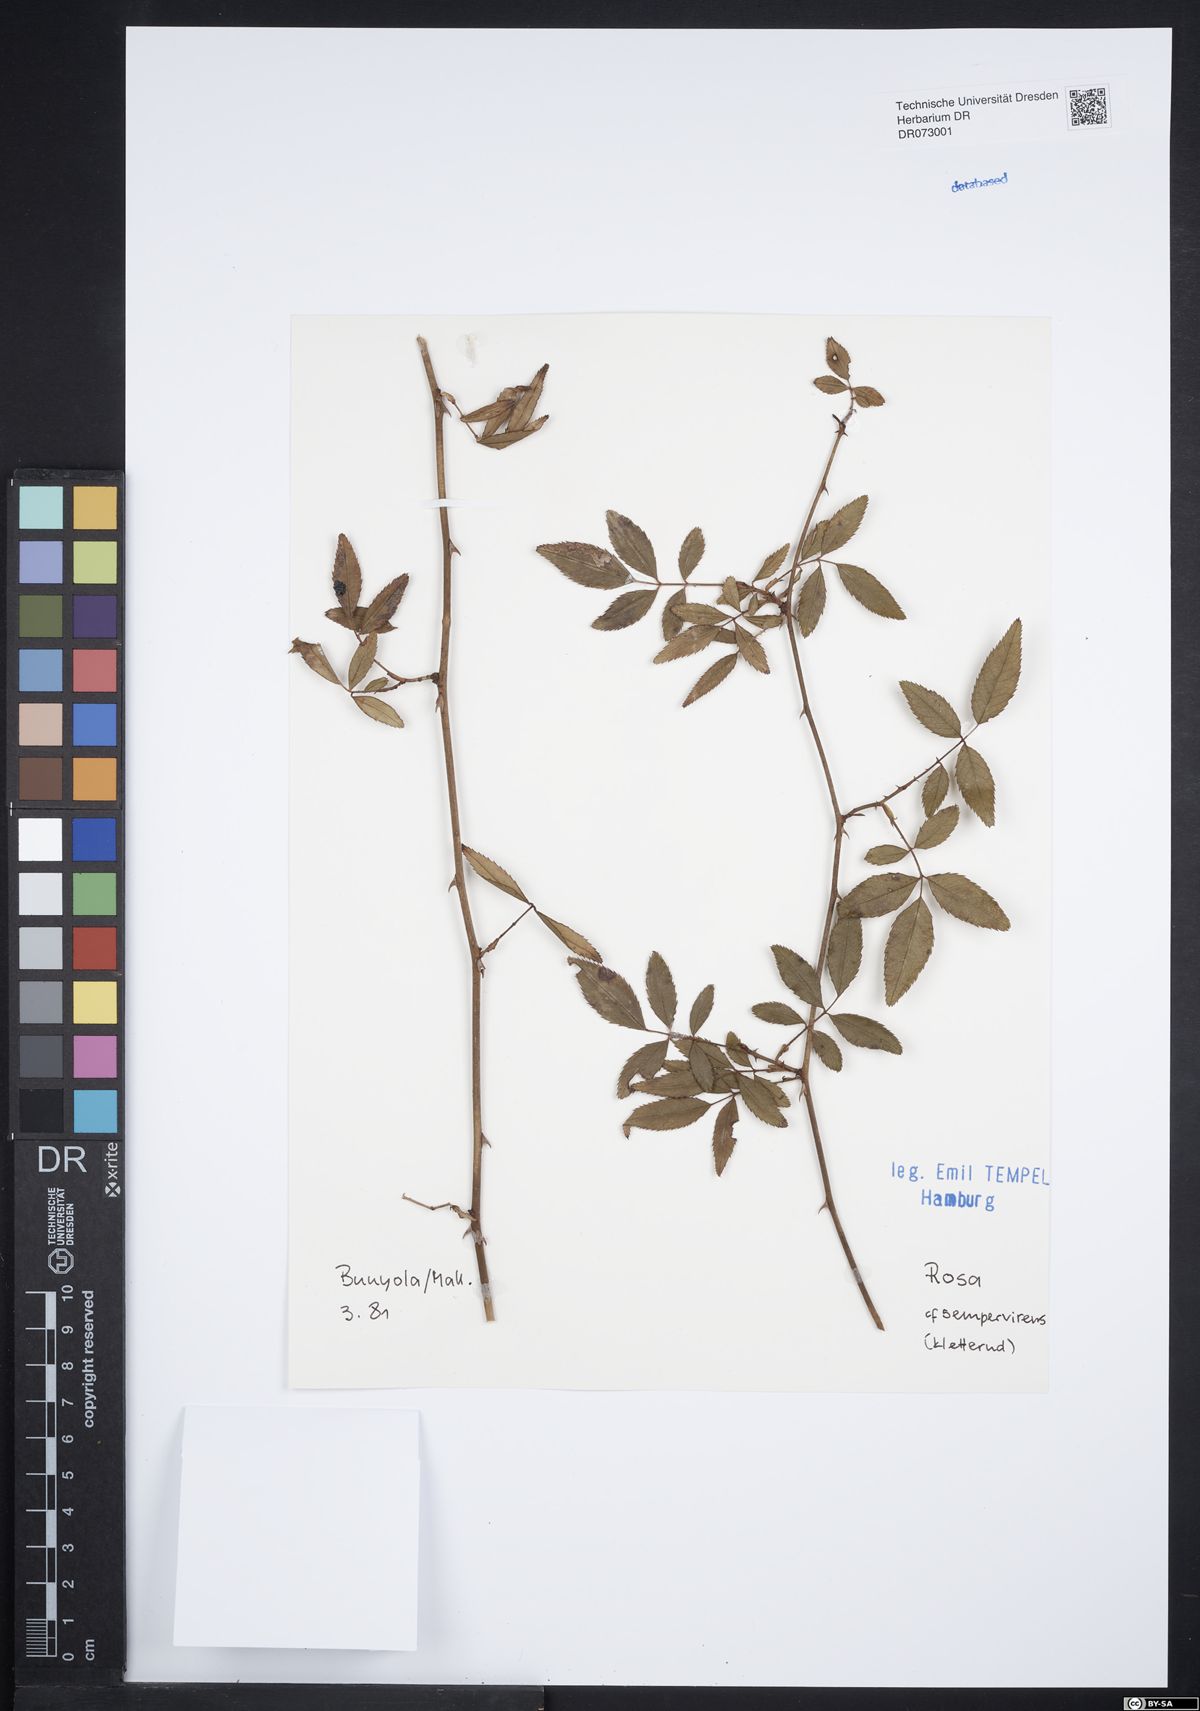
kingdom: Plantae
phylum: Tracheophyta
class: Magnoliopsida
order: Rosales
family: Rosaceae
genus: Rosa
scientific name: Rosa sempervirens
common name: Evergreen rose
